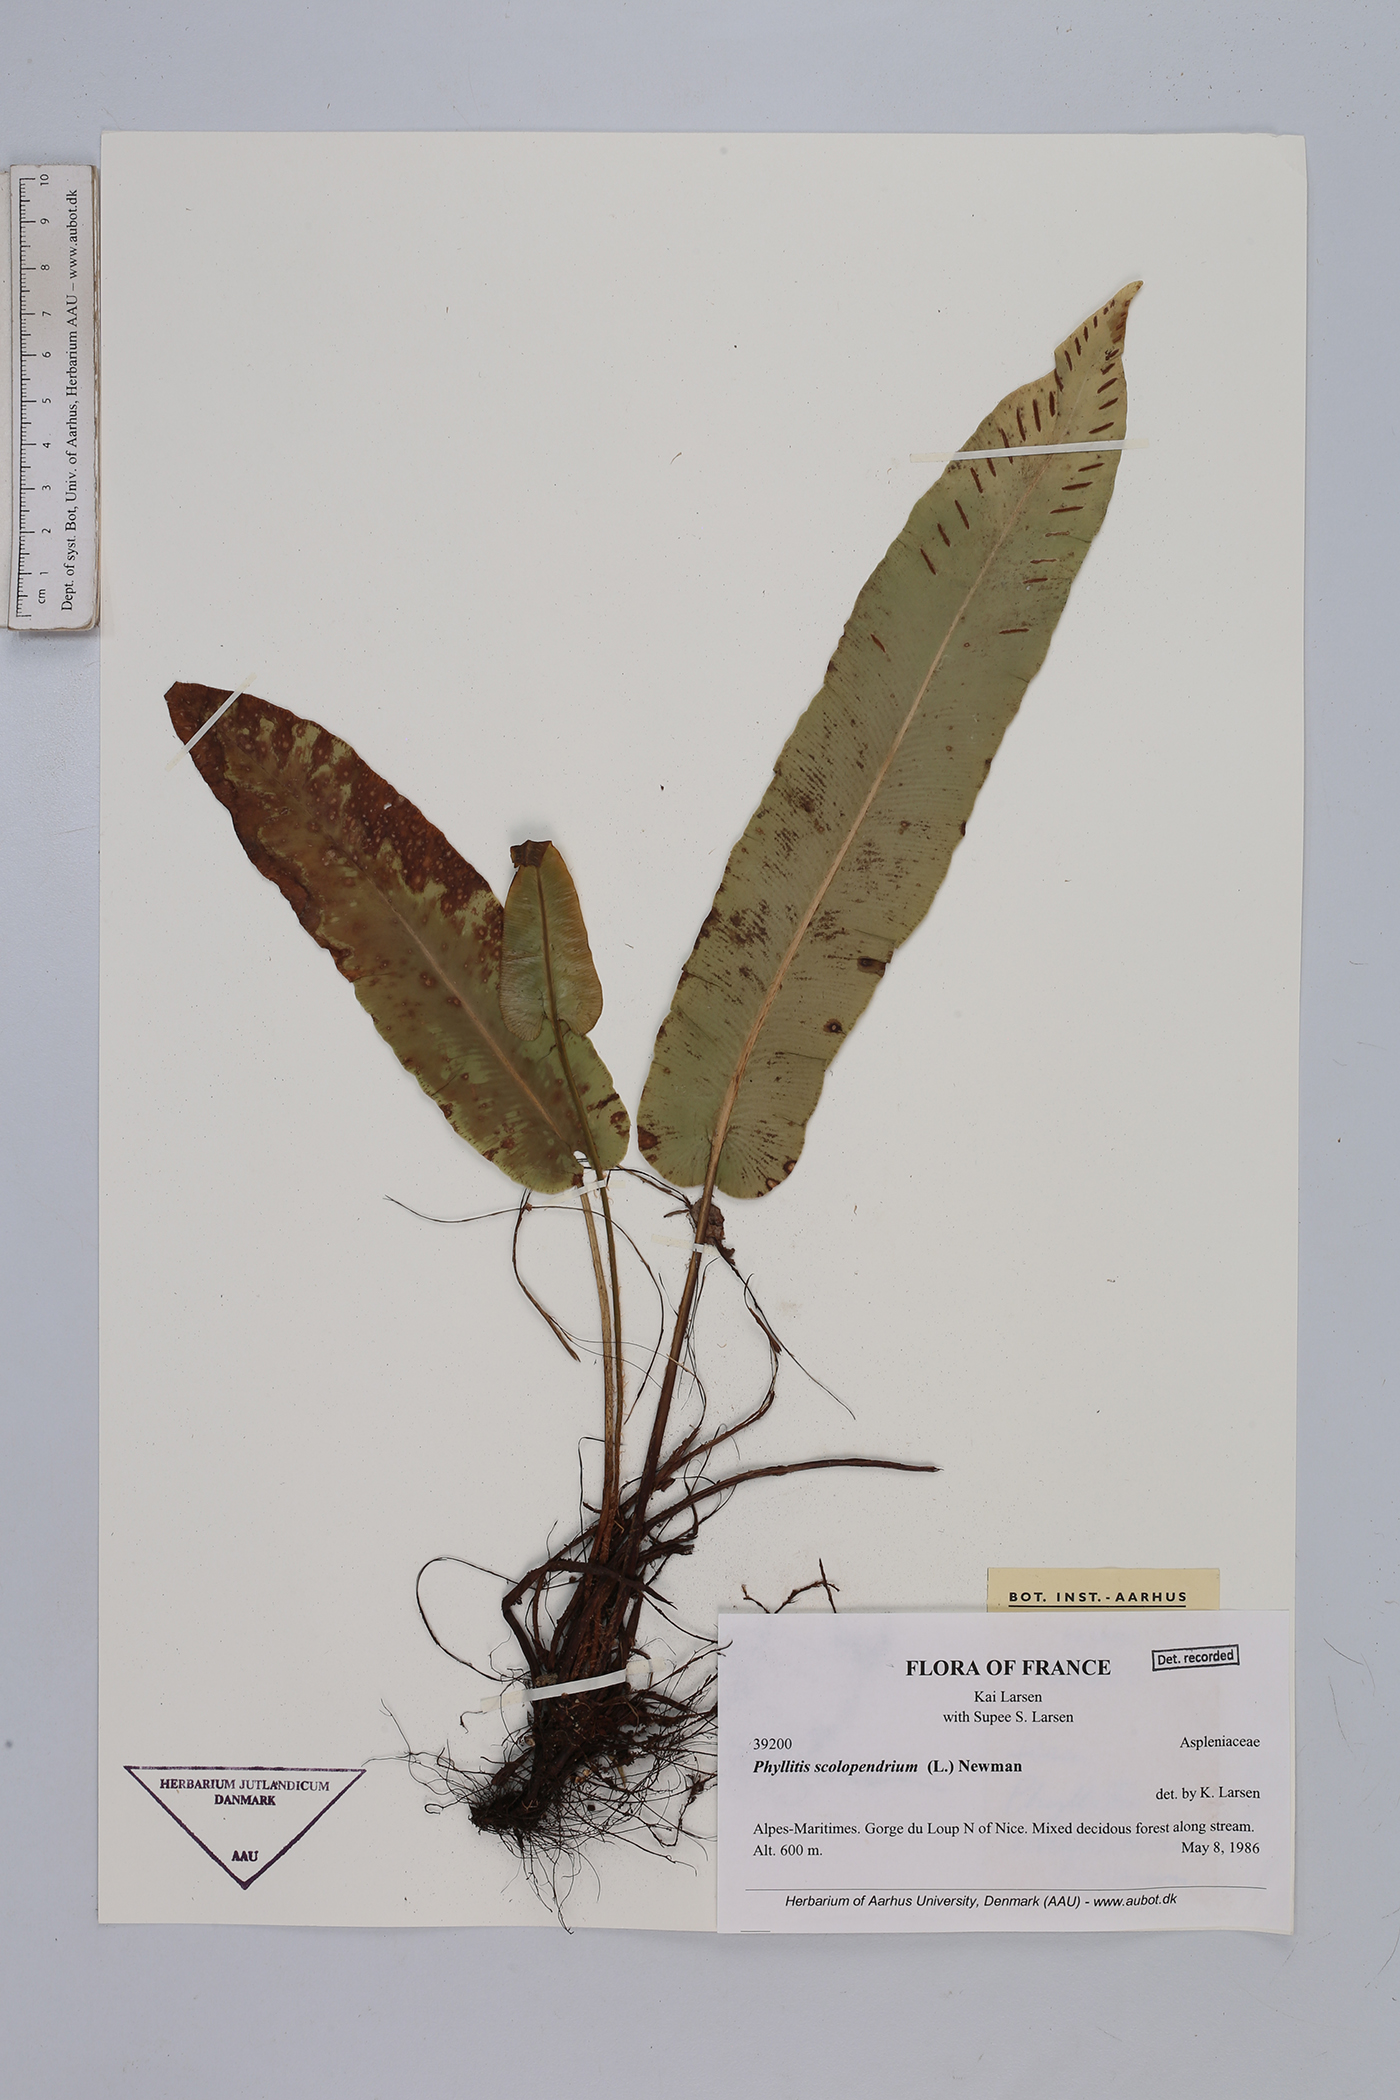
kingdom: Plantae
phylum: Tracheophyta
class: Polypodiopsida
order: Polypodiales
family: Aspleniaceae
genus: Asplenium
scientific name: Asplenium scolopendrium
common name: Hart's-tongue fern
